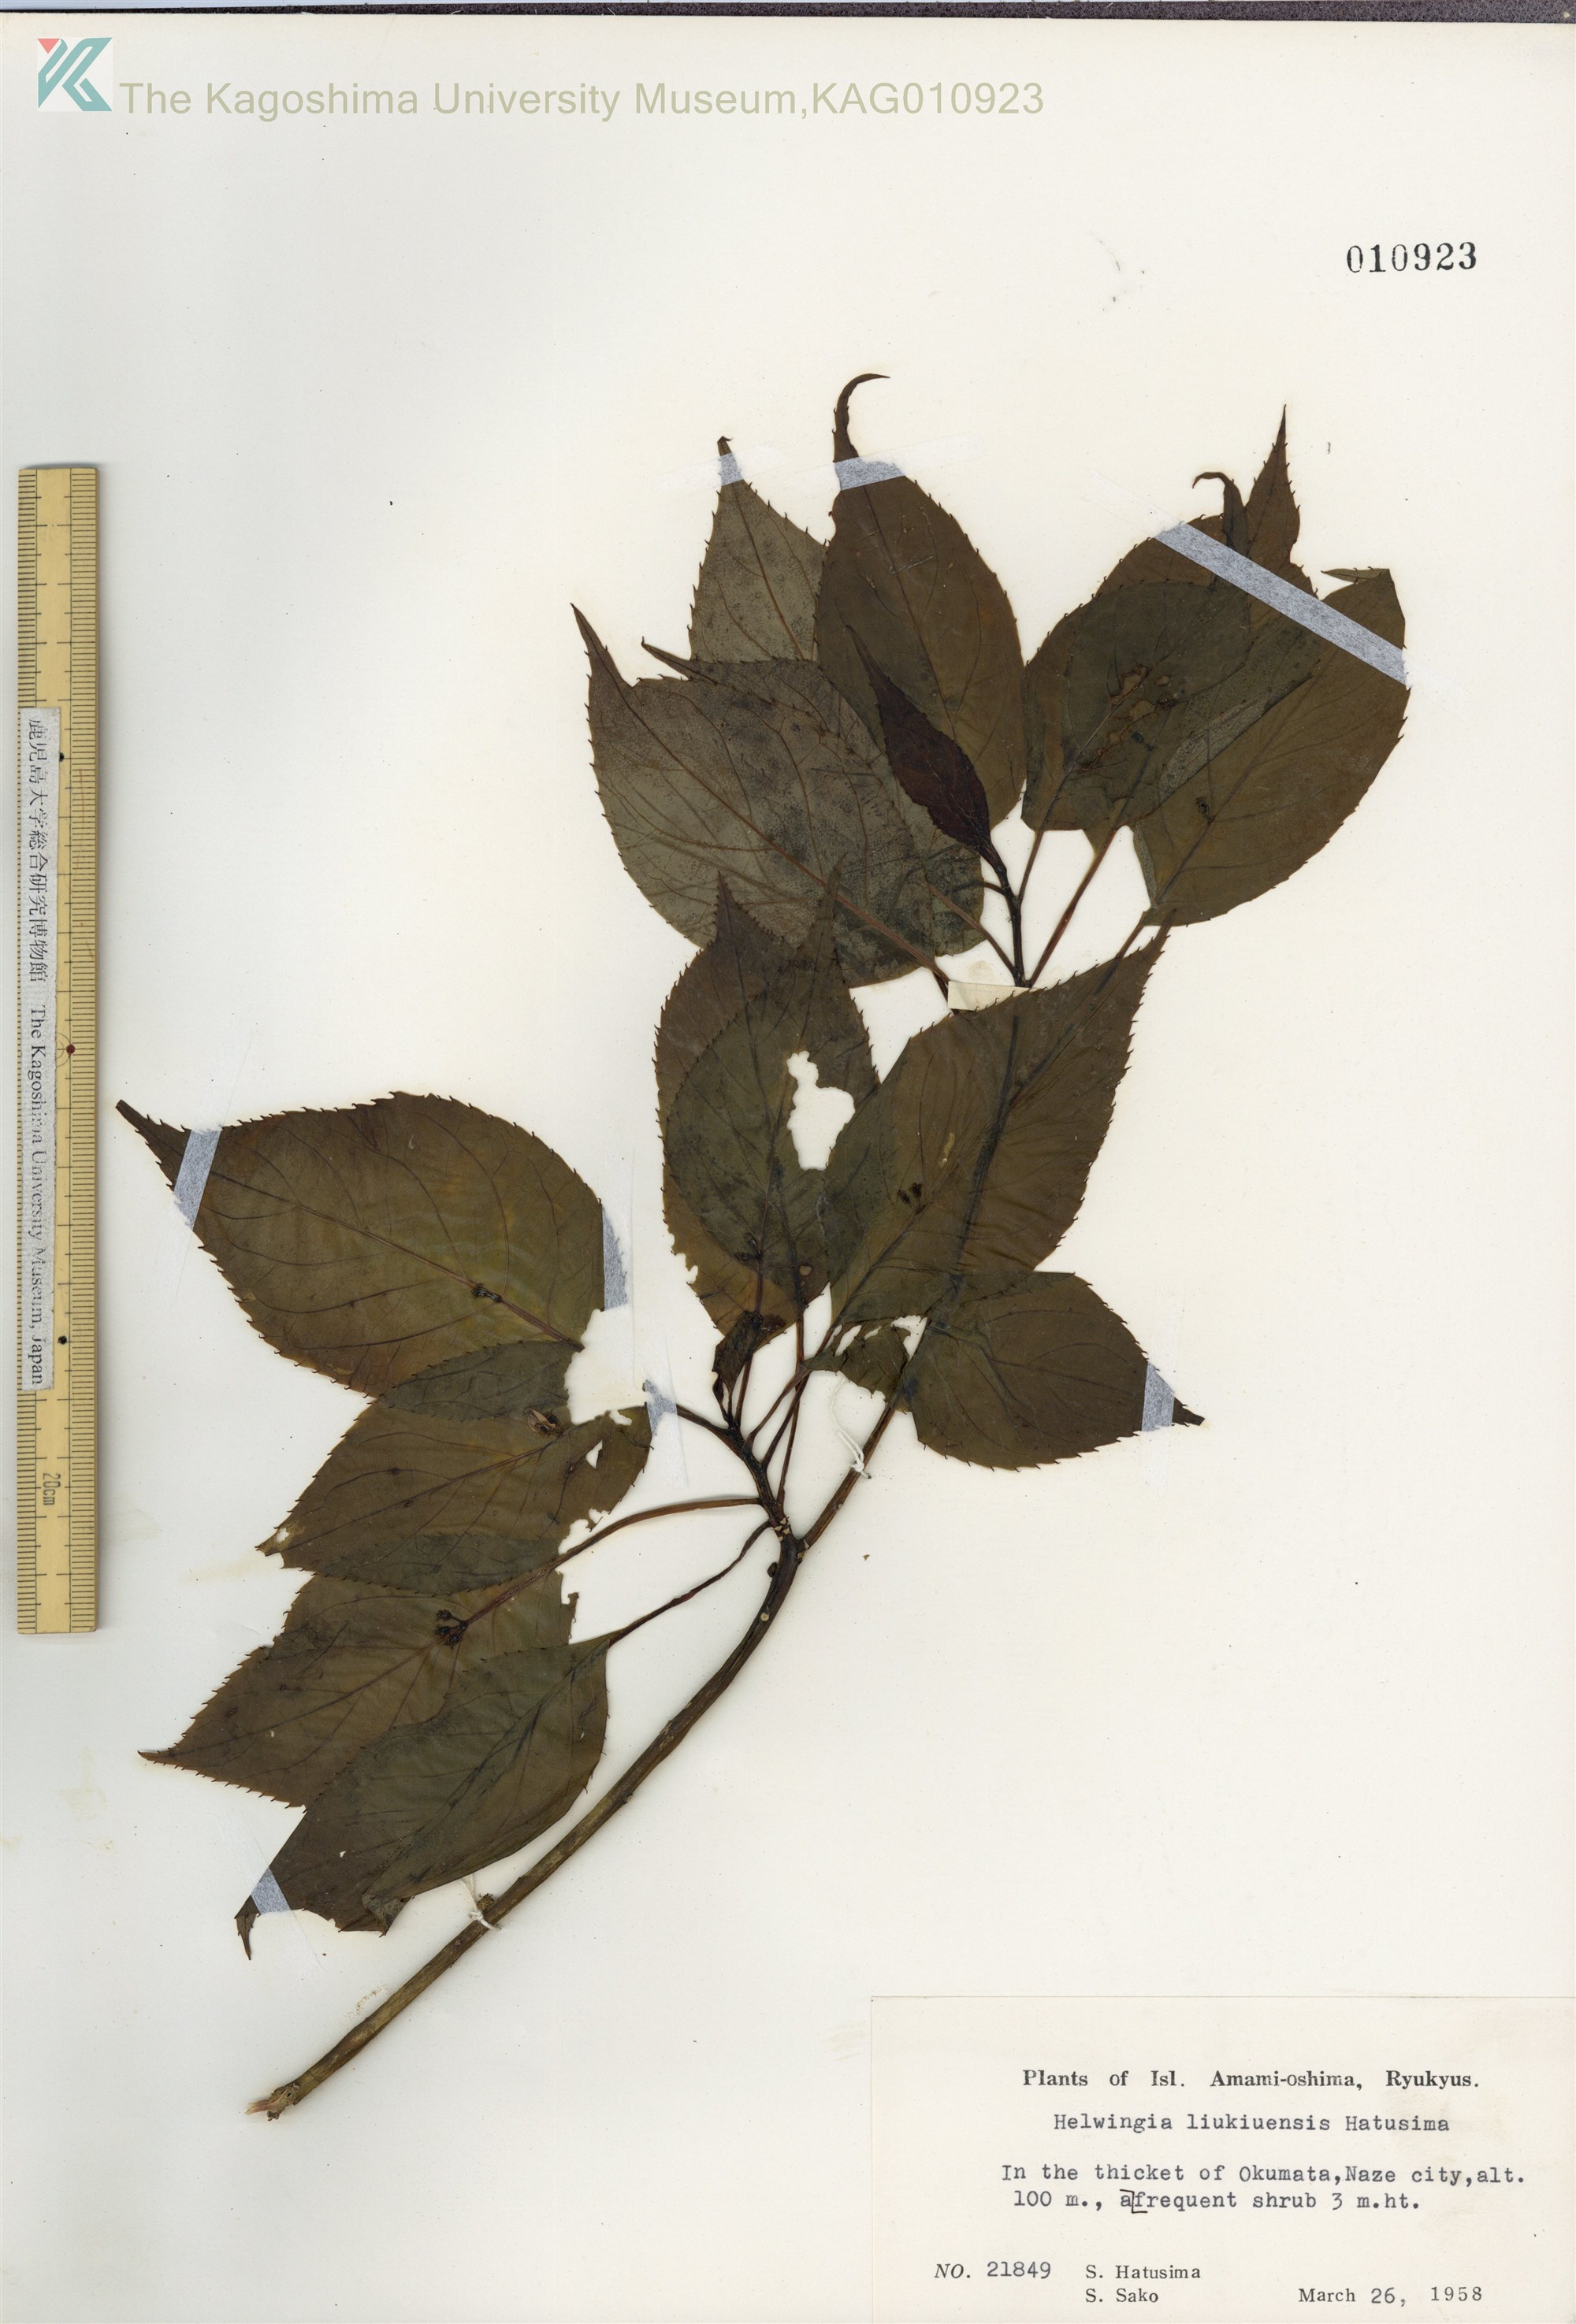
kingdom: Plantae
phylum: Tracheophyta
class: Magnoliopsida
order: Aquifoliales
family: Helwingiaceae
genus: Helwingia
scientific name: Helwingia japonica
